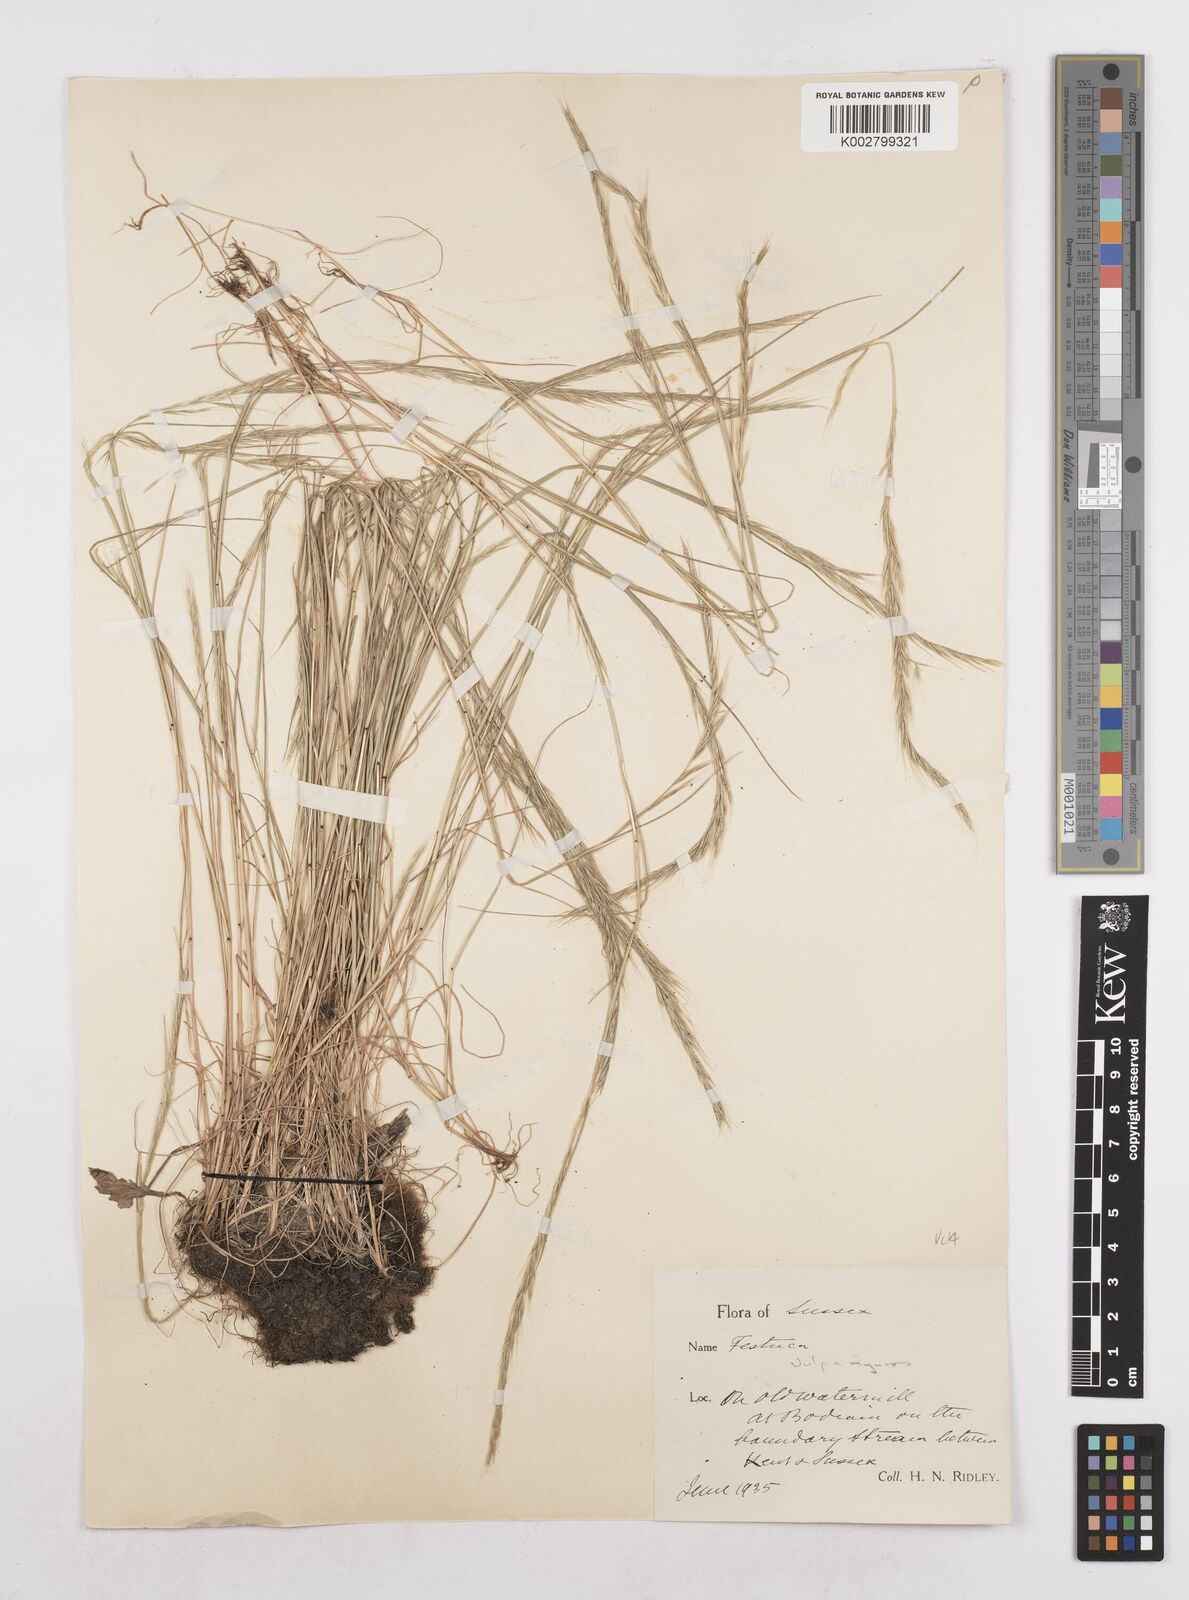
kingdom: Plantae
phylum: Tracheophyta
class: Liliopsida
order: Poales
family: Poaceae
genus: Festuca
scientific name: Festuca myuros
